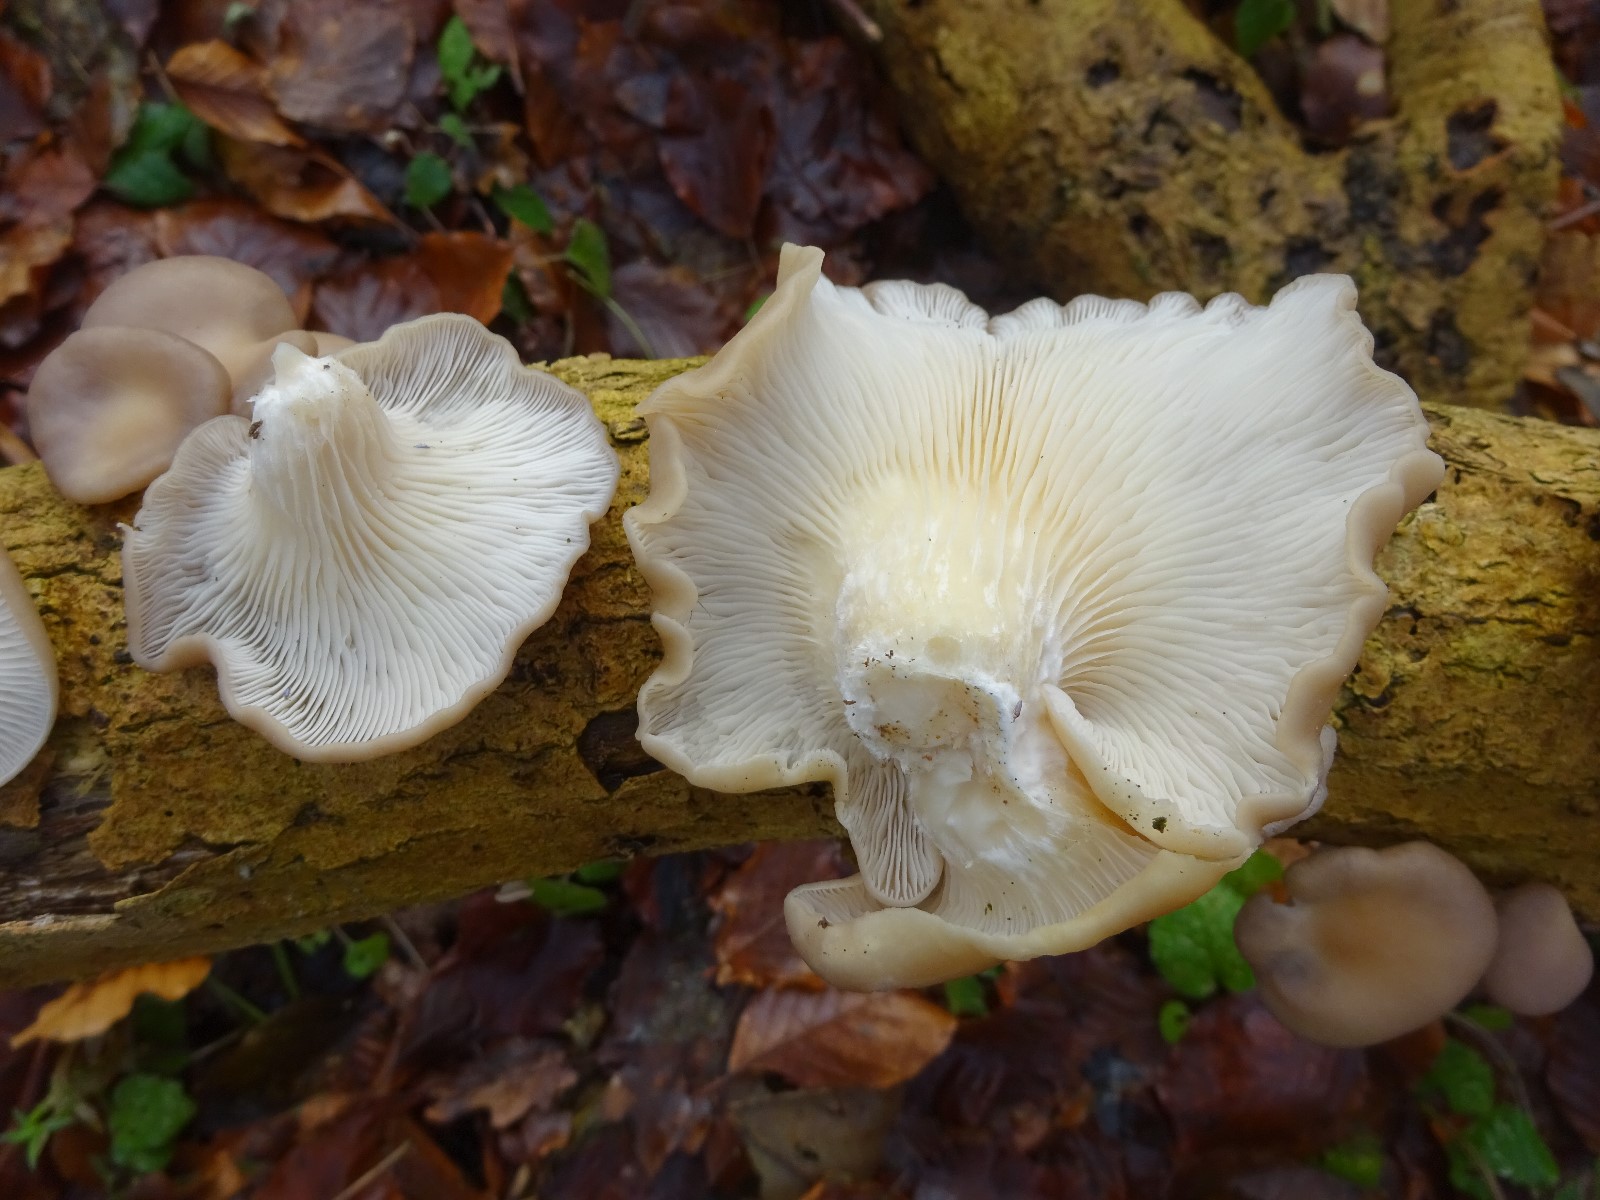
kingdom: Fungi
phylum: Basidiomycota
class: Agaricomycetes
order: Agaricales
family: Pleurotaceae
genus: Pleurotus
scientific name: Pleurotus ostreatus
